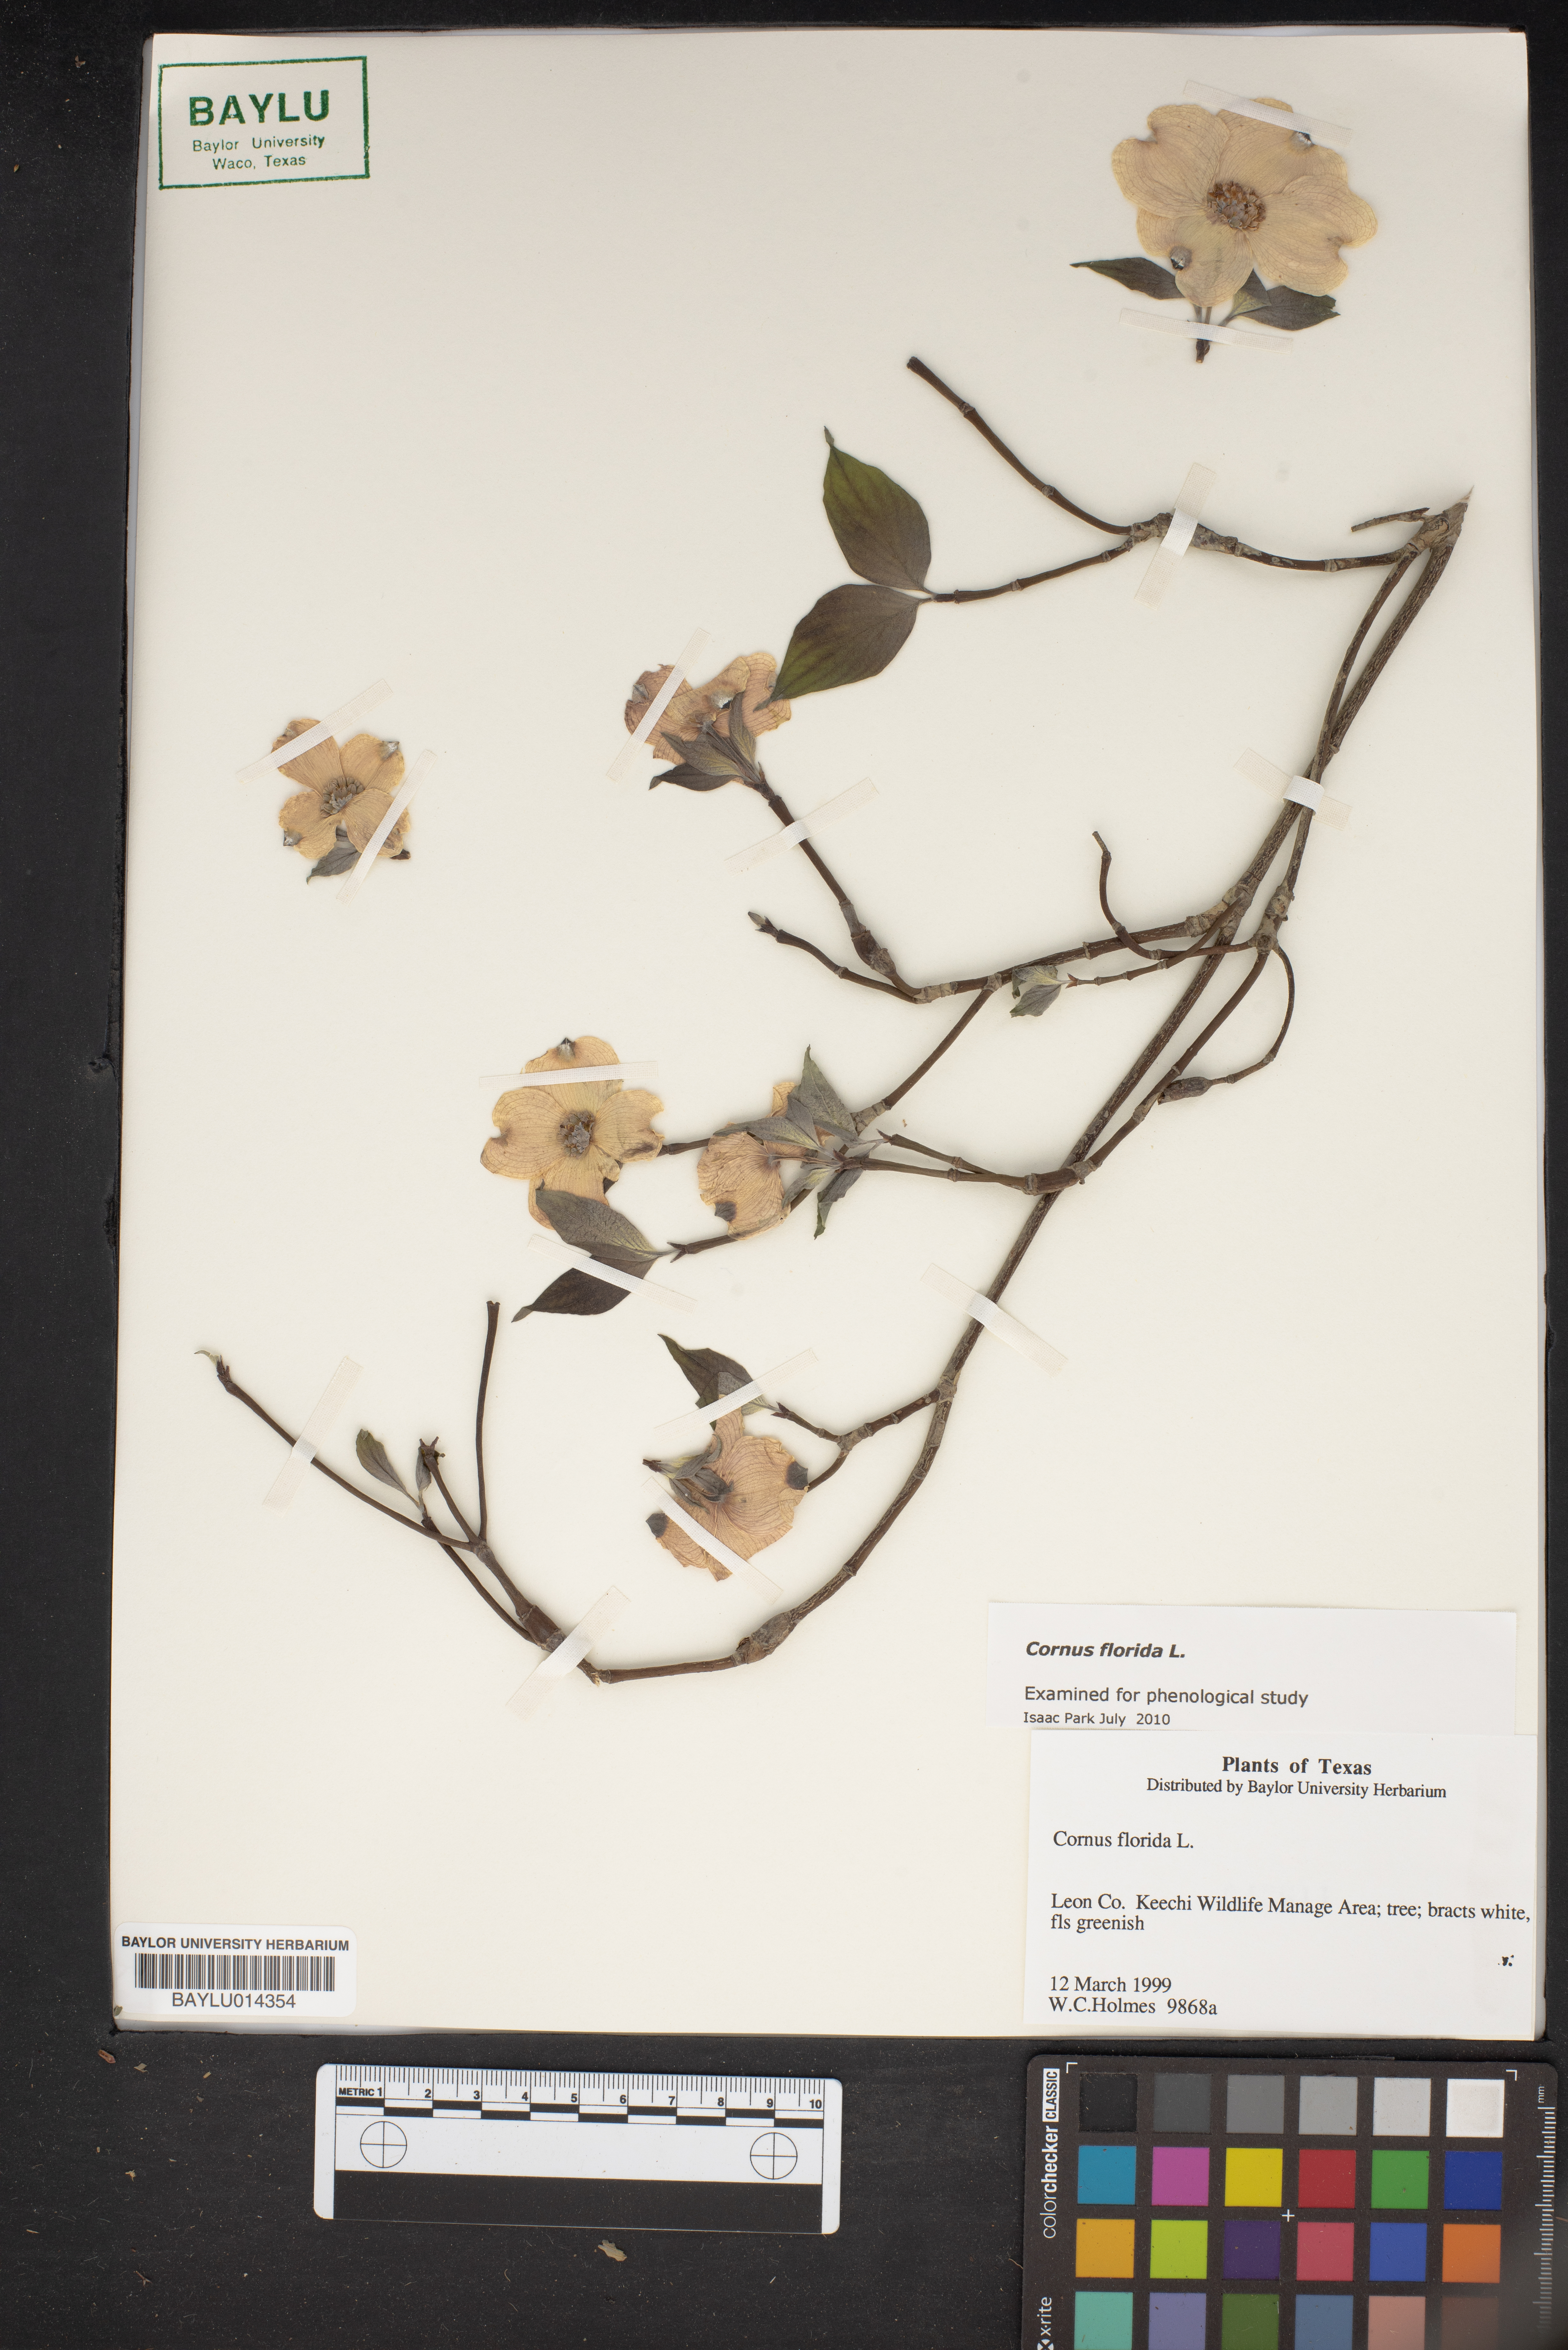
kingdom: Plantae
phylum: Tracheophyta
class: Magnoliopsida
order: Cornales
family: Cornaceae
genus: Cornus
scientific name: Cornus florida
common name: Flowering dogwood
